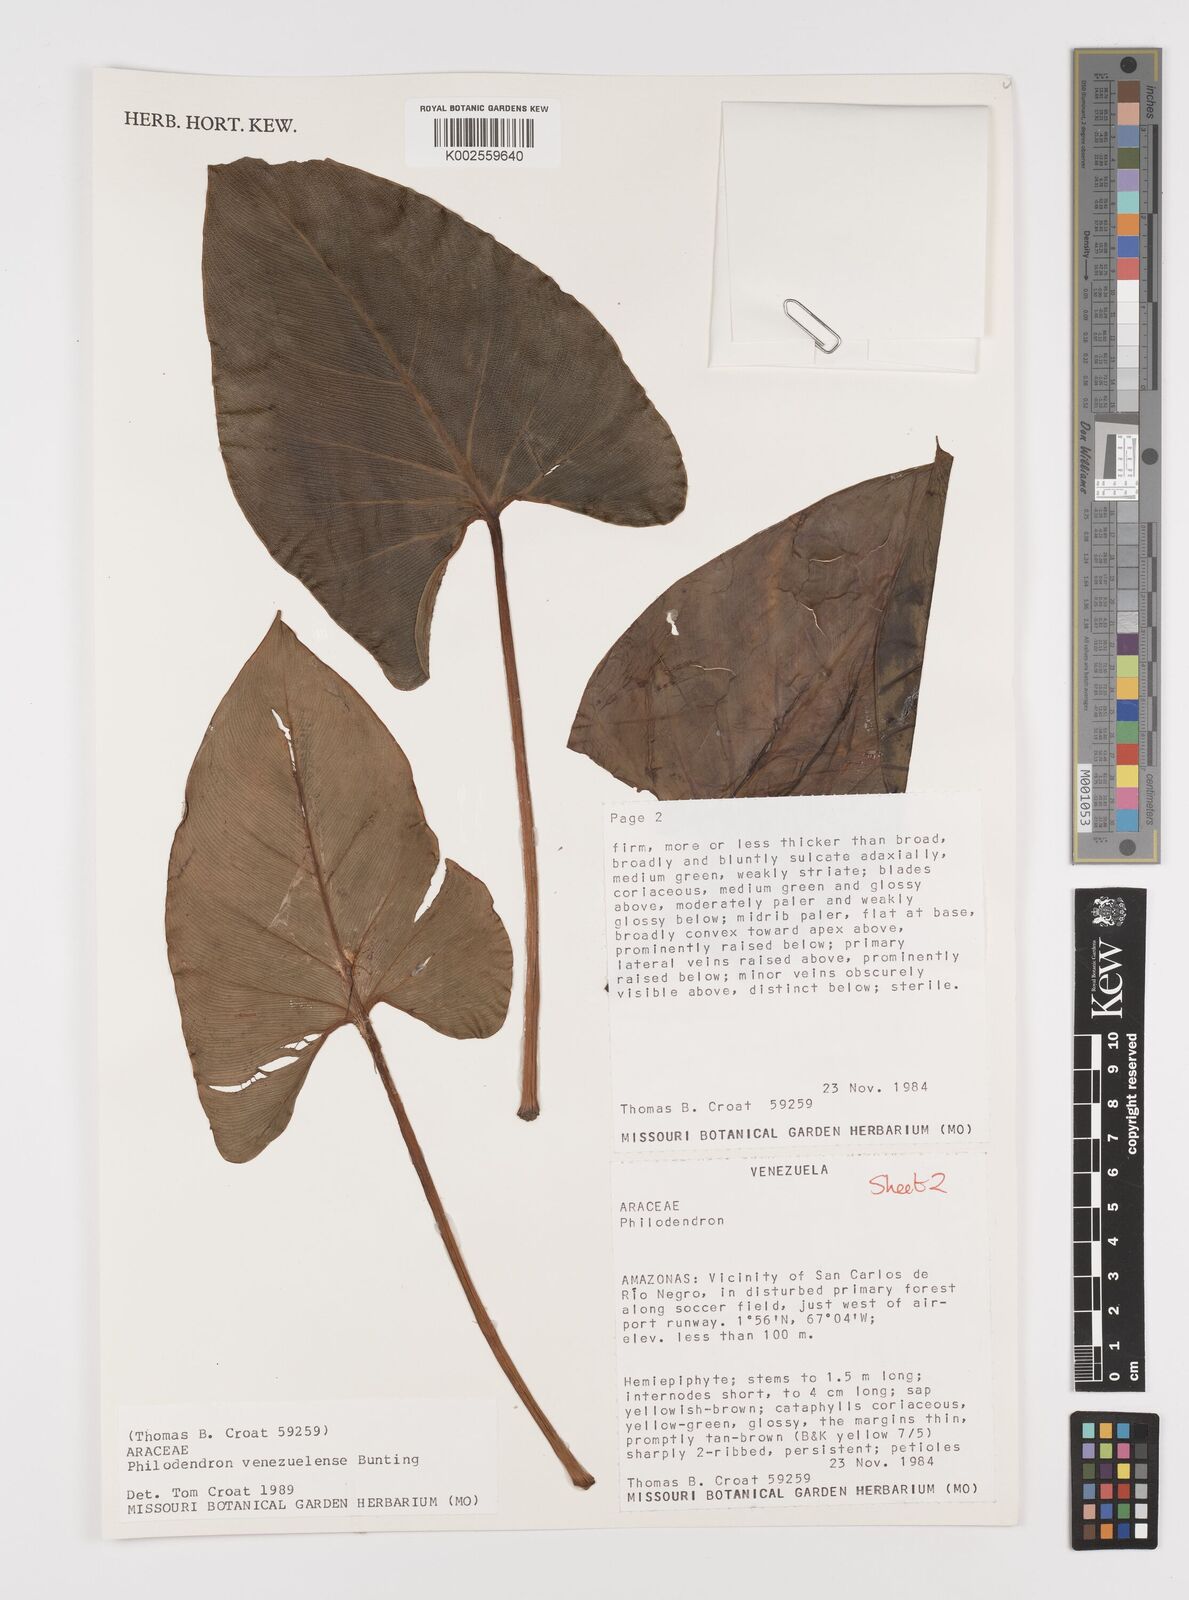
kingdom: Plantae
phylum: Tracheophyta
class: Liliopsida
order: Alismatales
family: Araceae
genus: Thaumatophyllum
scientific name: Thaumatophyllum venezuelense
